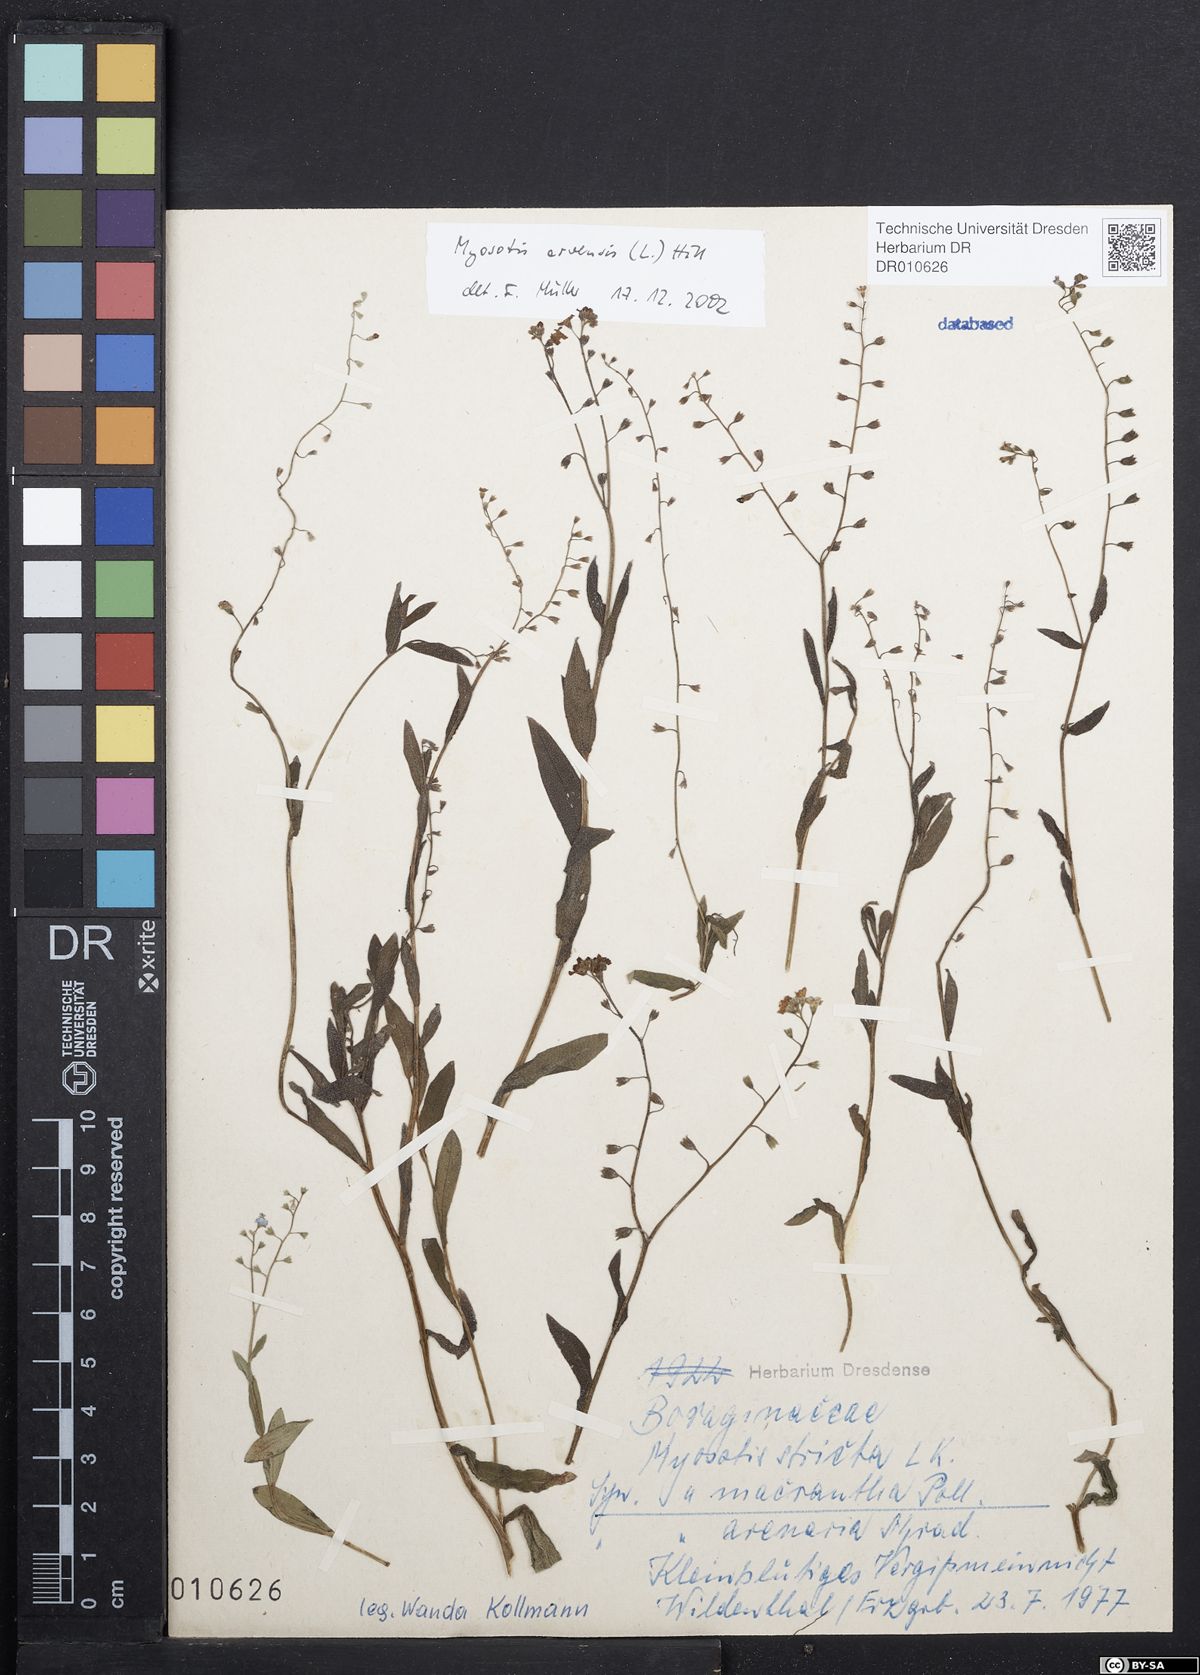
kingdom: Plantae
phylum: Tracheophyta
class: Magnoliopsida
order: Boraginales
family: Boraginaceae
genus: Myosotis
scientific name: Myosotis arvensis
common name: Field forget-me-not
